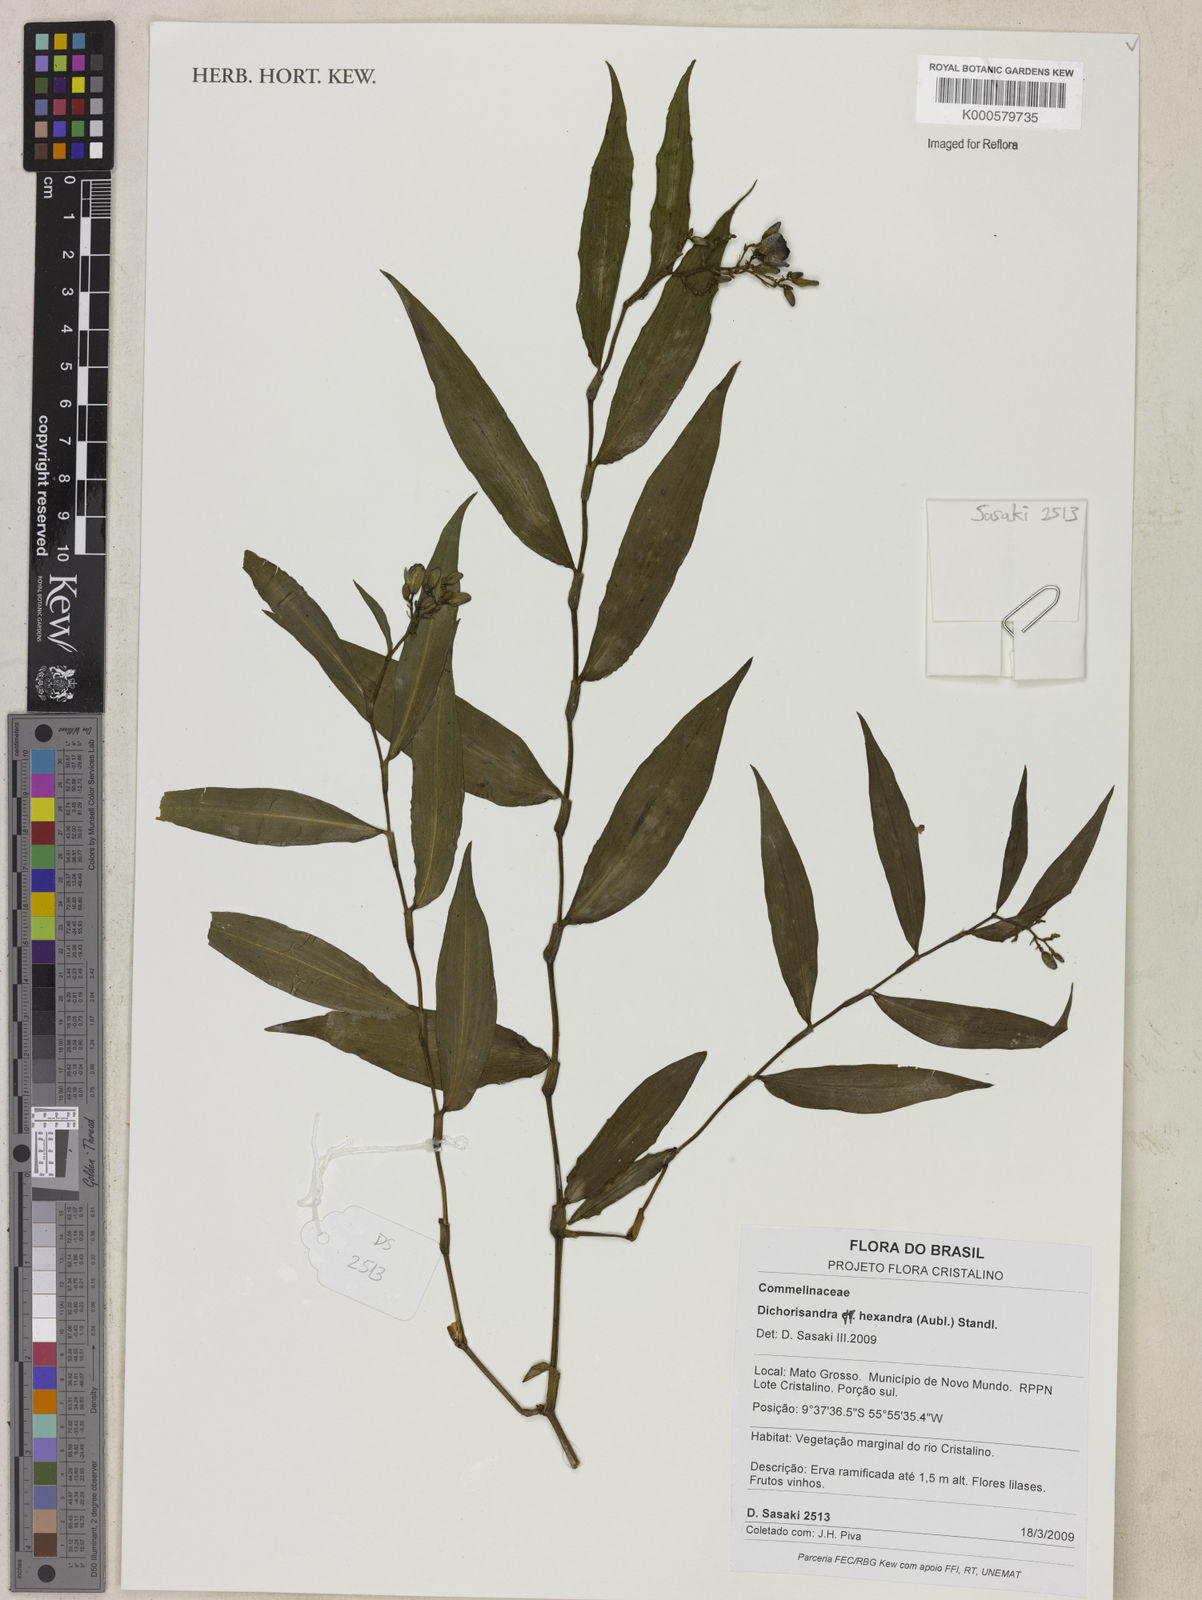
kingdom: Plantae
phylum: Tracheophyta
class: Liliopsida
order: Commelinales
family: Commelinaceae
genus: Dichorisandra
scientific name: Dichorisandra
